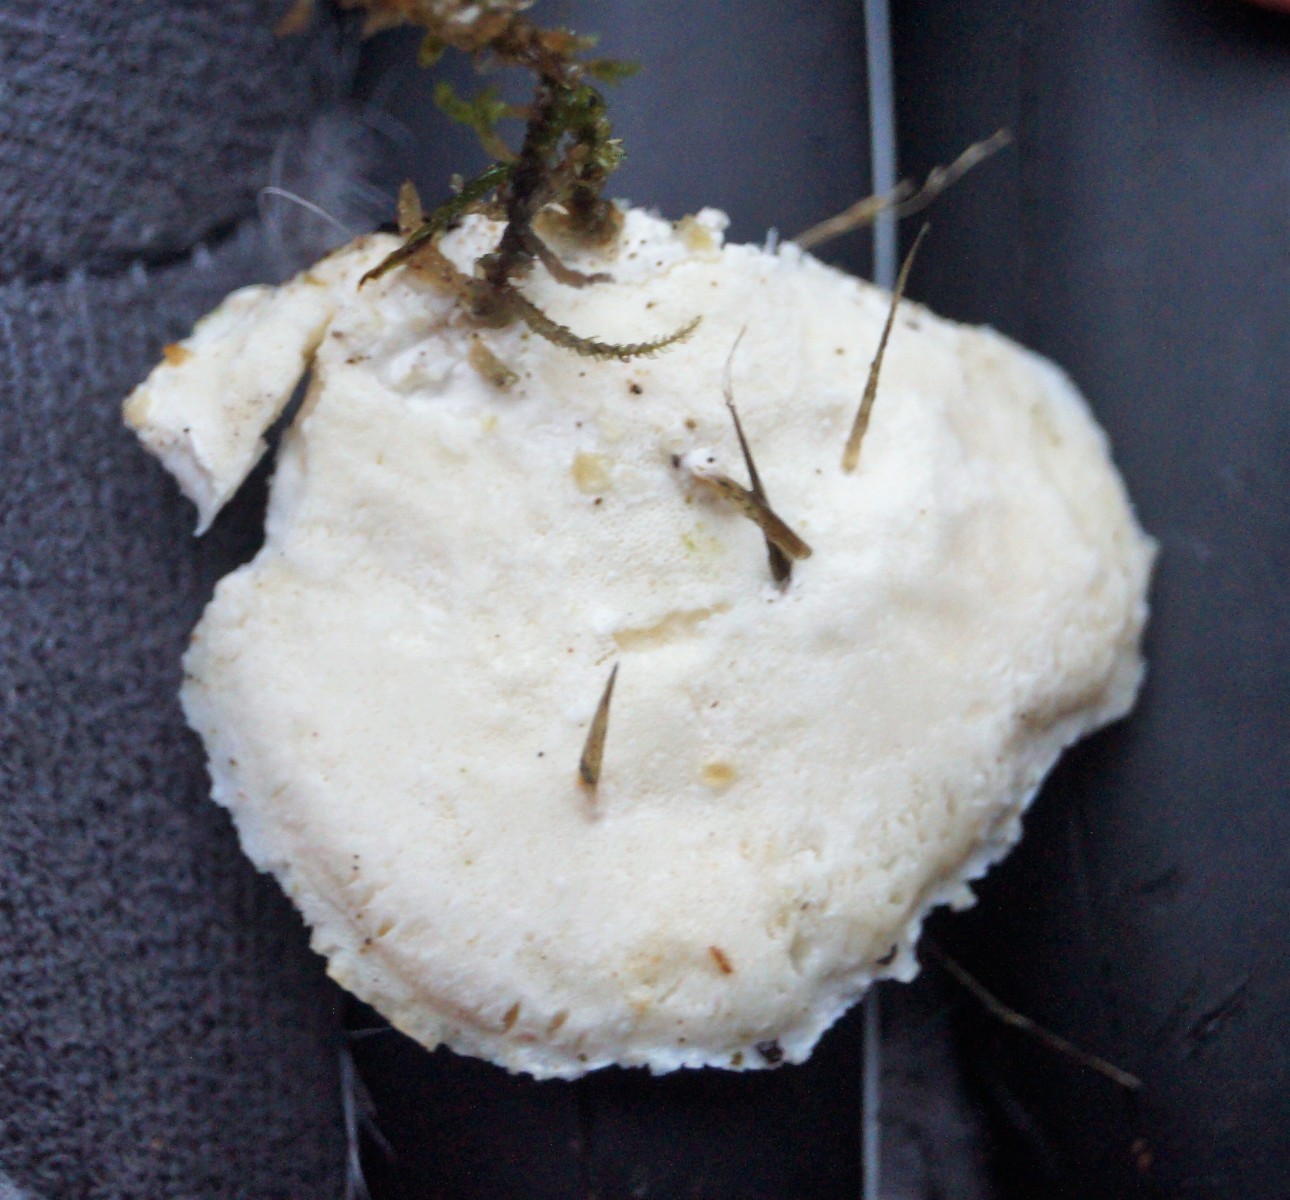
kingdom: Fungi
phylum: Basidiomycota
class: Agaricomycetes
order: Polyporales
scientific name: Polyporales
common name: poresvampordenen
